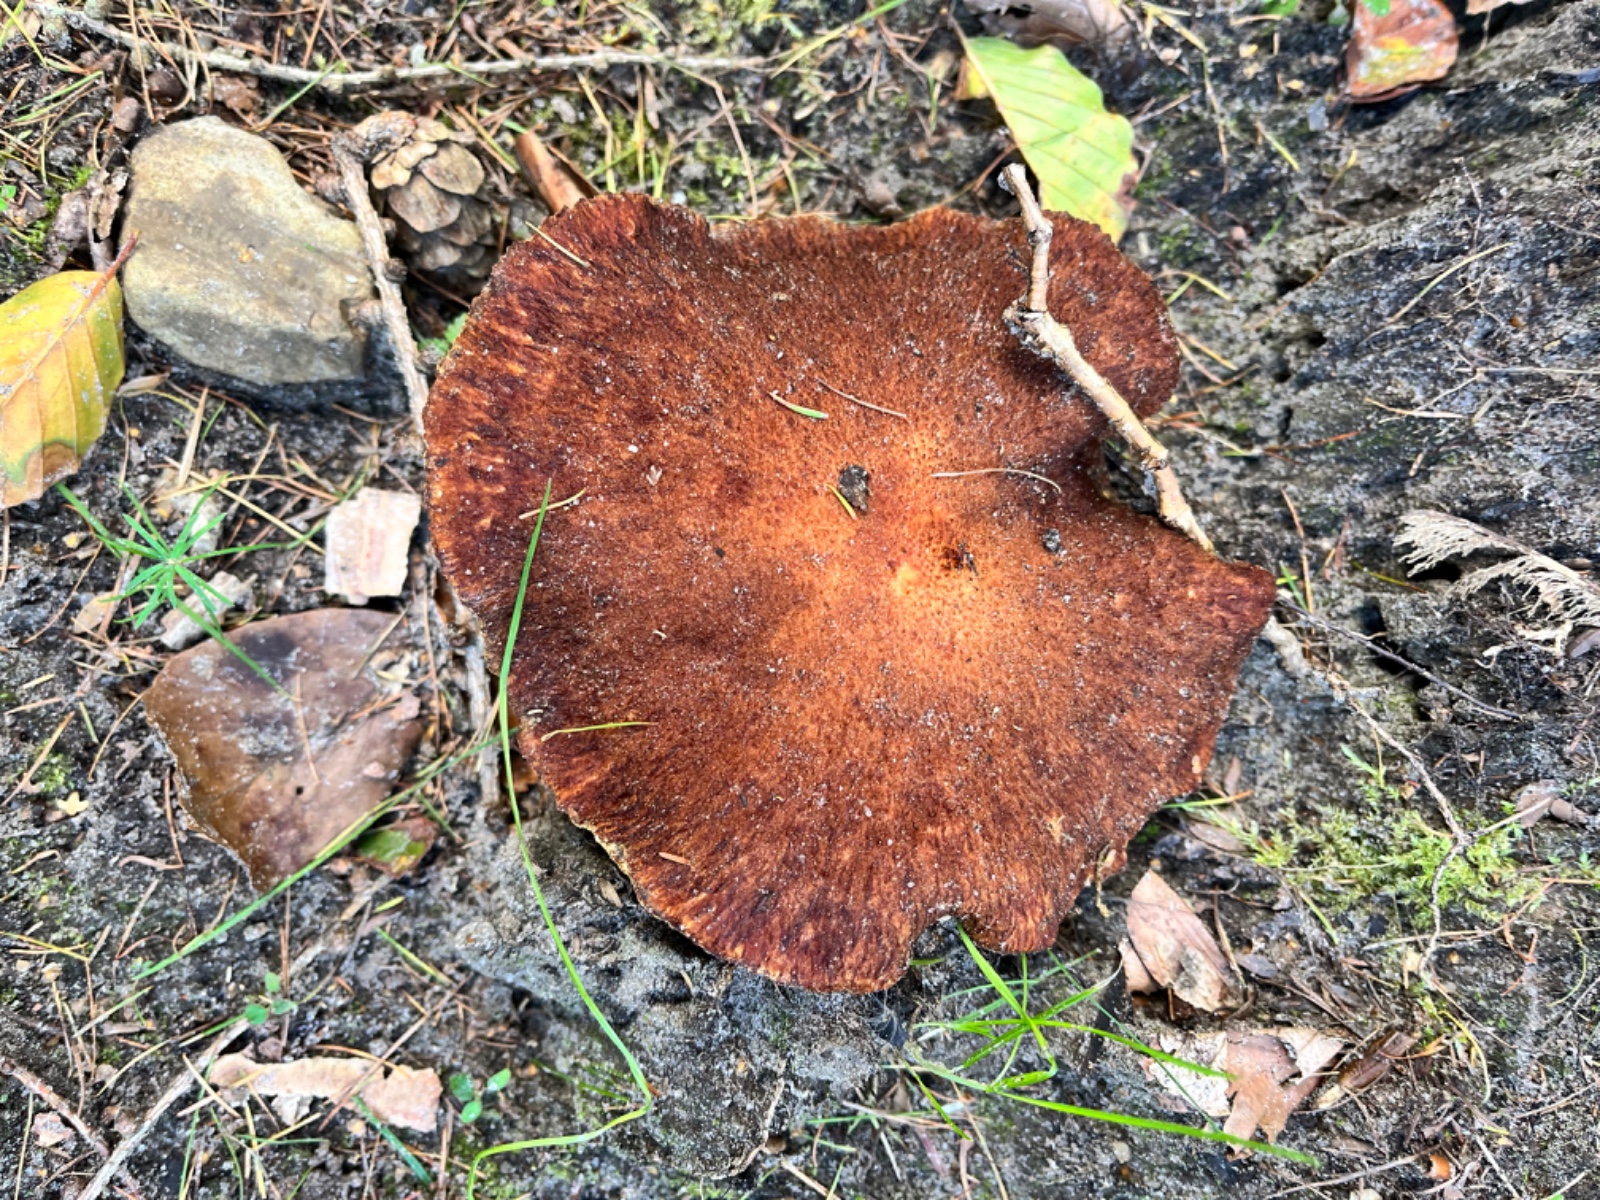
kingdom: Fungi
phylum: Basidiomycota
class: Agaricomycetes
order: Boletales
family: Suillaceae
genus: Suillus
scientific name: Suillus cavipes
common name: hulstokket slimrørhat
